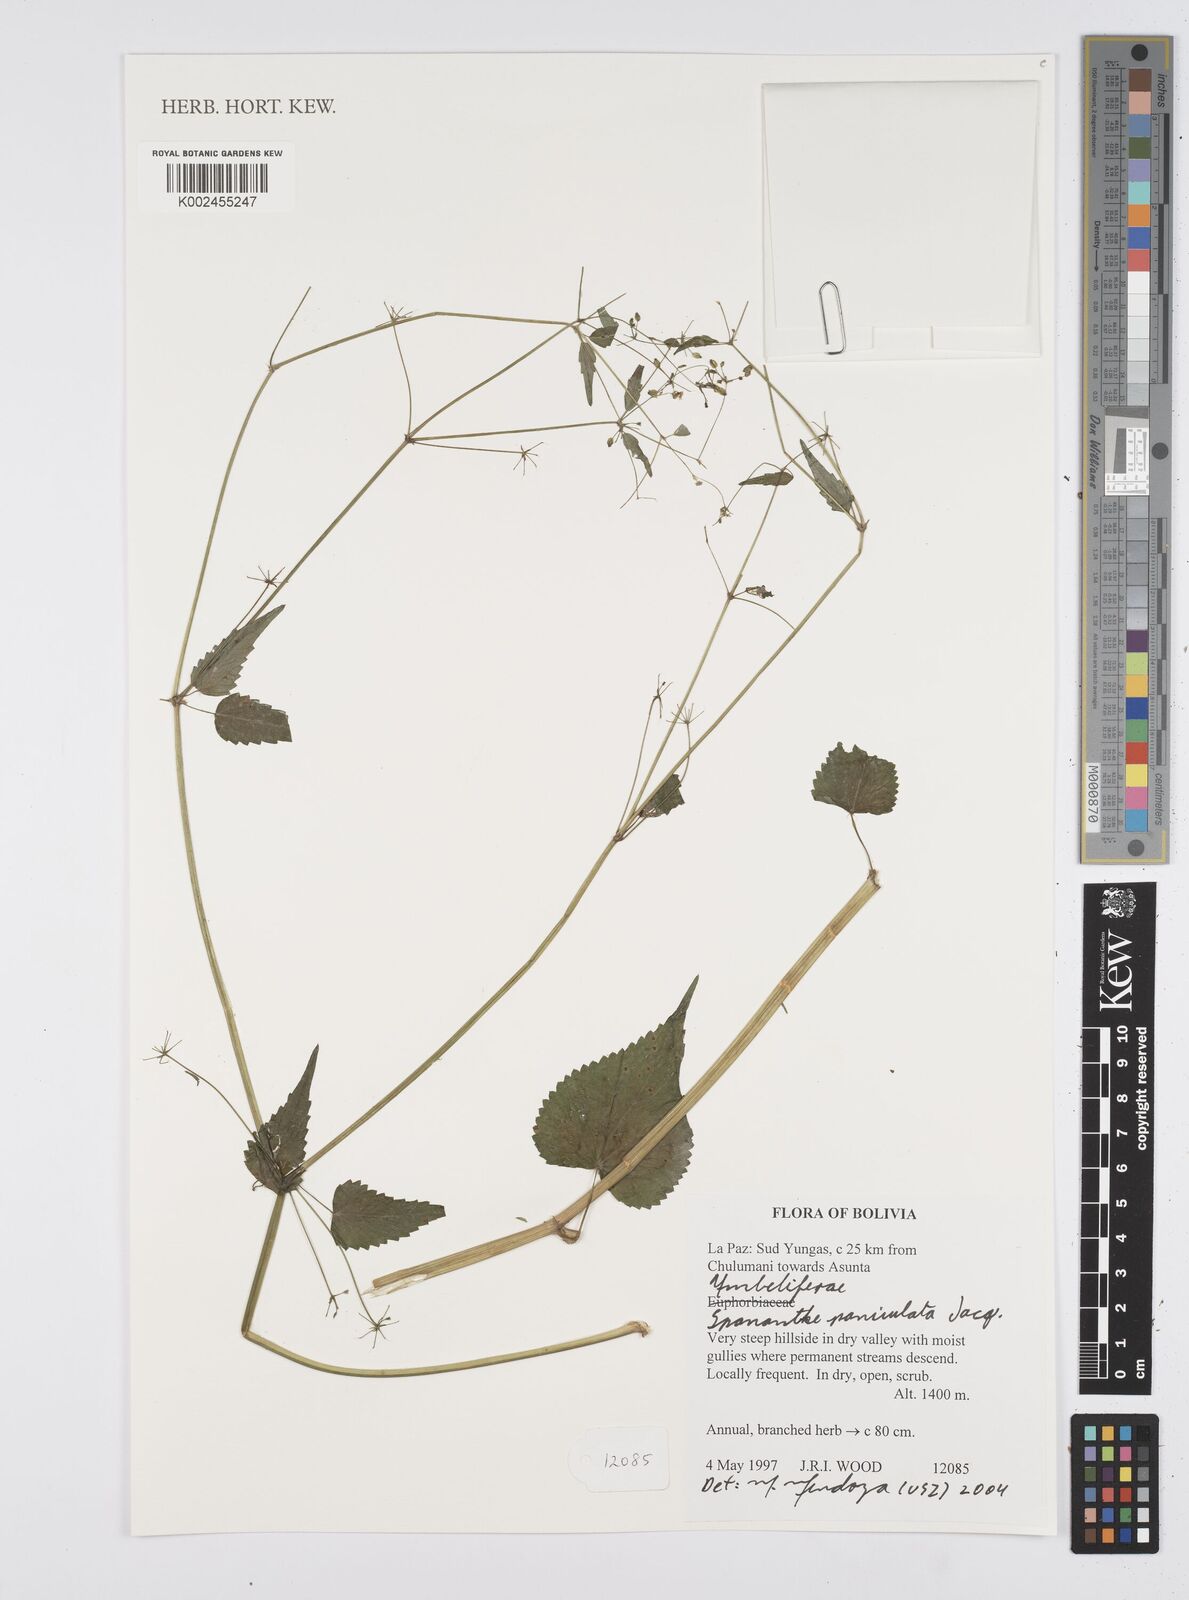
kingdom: Plantae
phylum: Tracheophyta
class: Magnoliopsida
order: Apiales
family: Apiaceae
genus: Azorella
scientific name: Azorella
